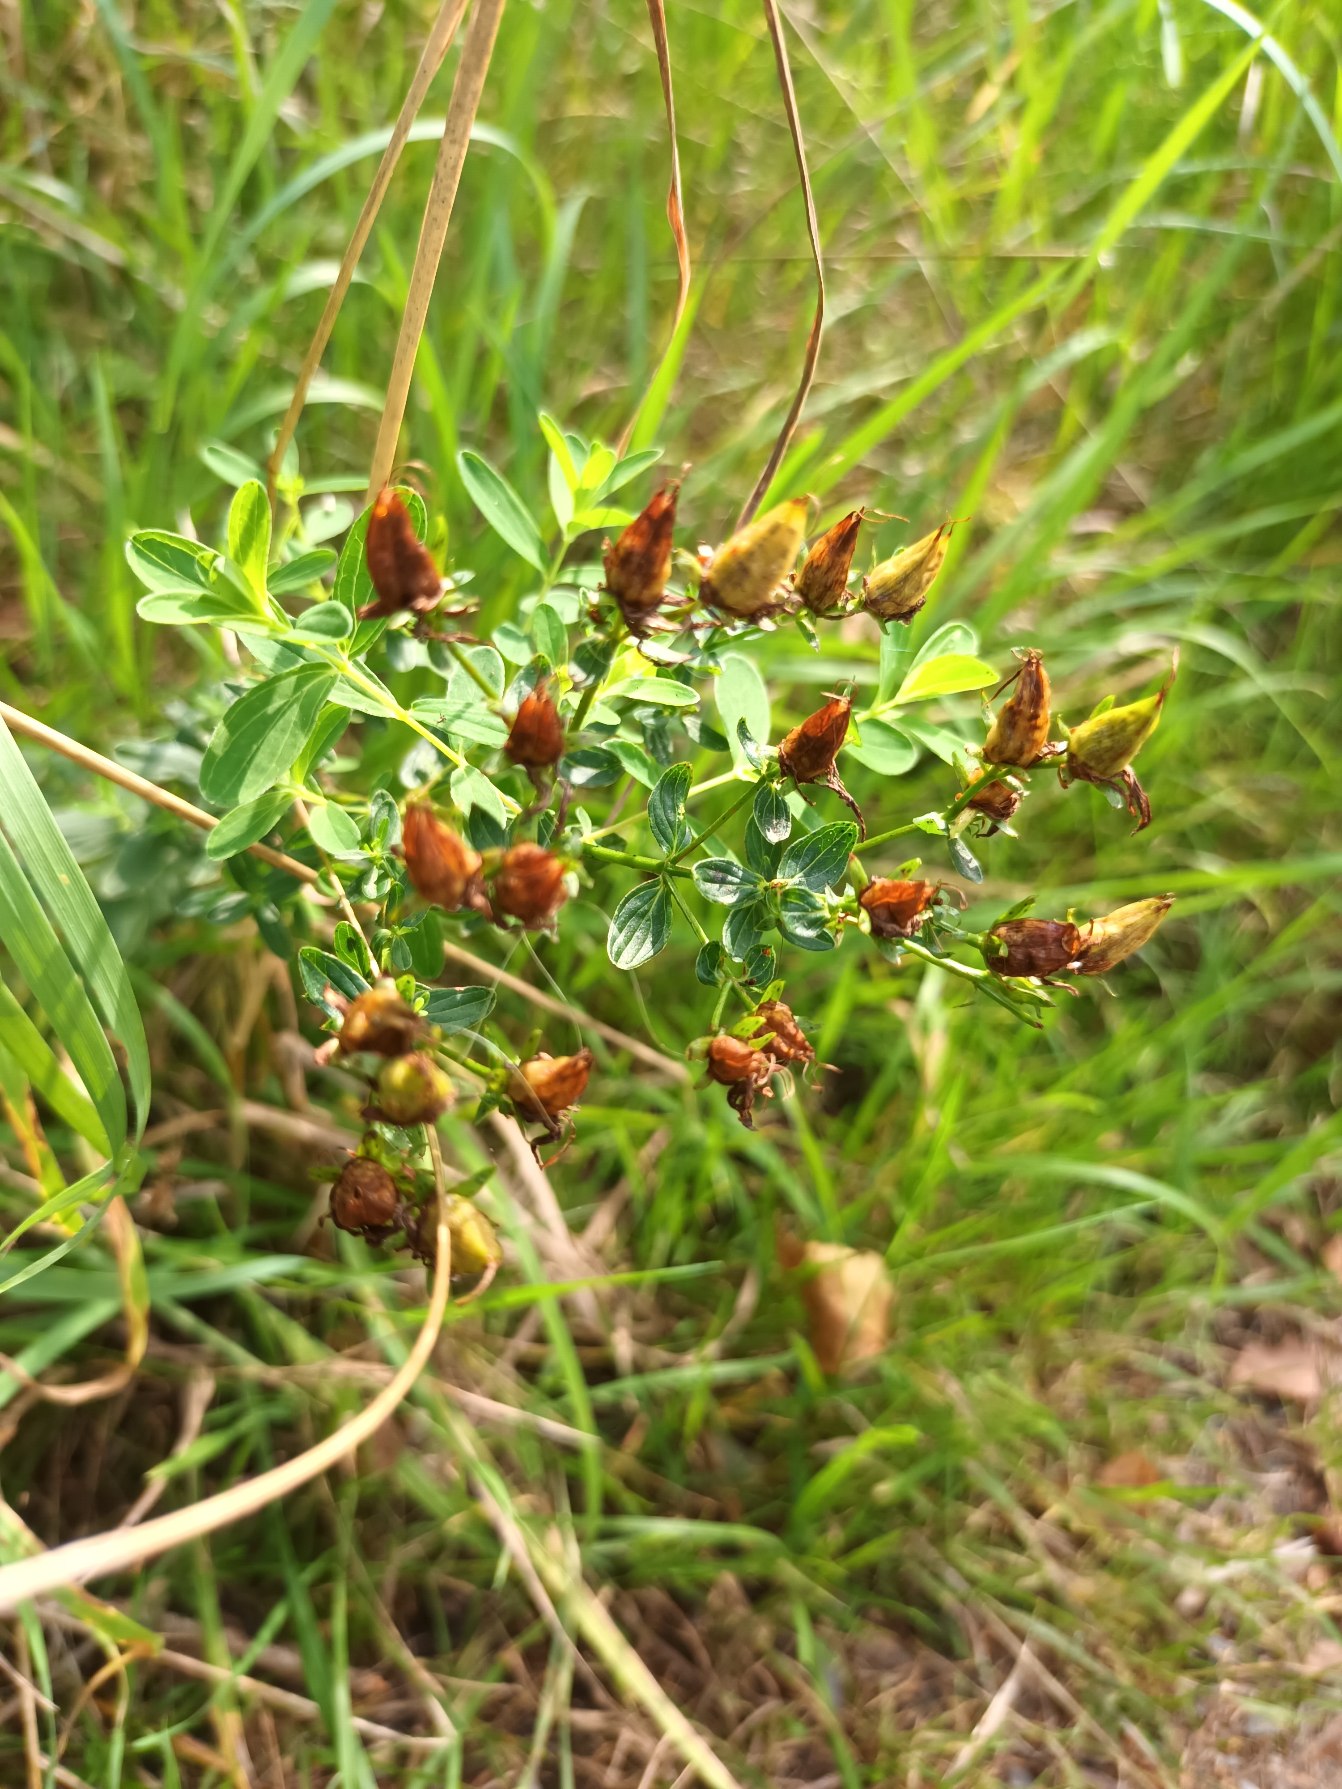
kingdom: Plantae
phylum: Tracheophyta
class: Magnoliopsida
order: Malpighiales
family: Hypericaceae
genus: Hypericum
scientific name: Hypericum perforatum
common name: Prikbladet perikon
